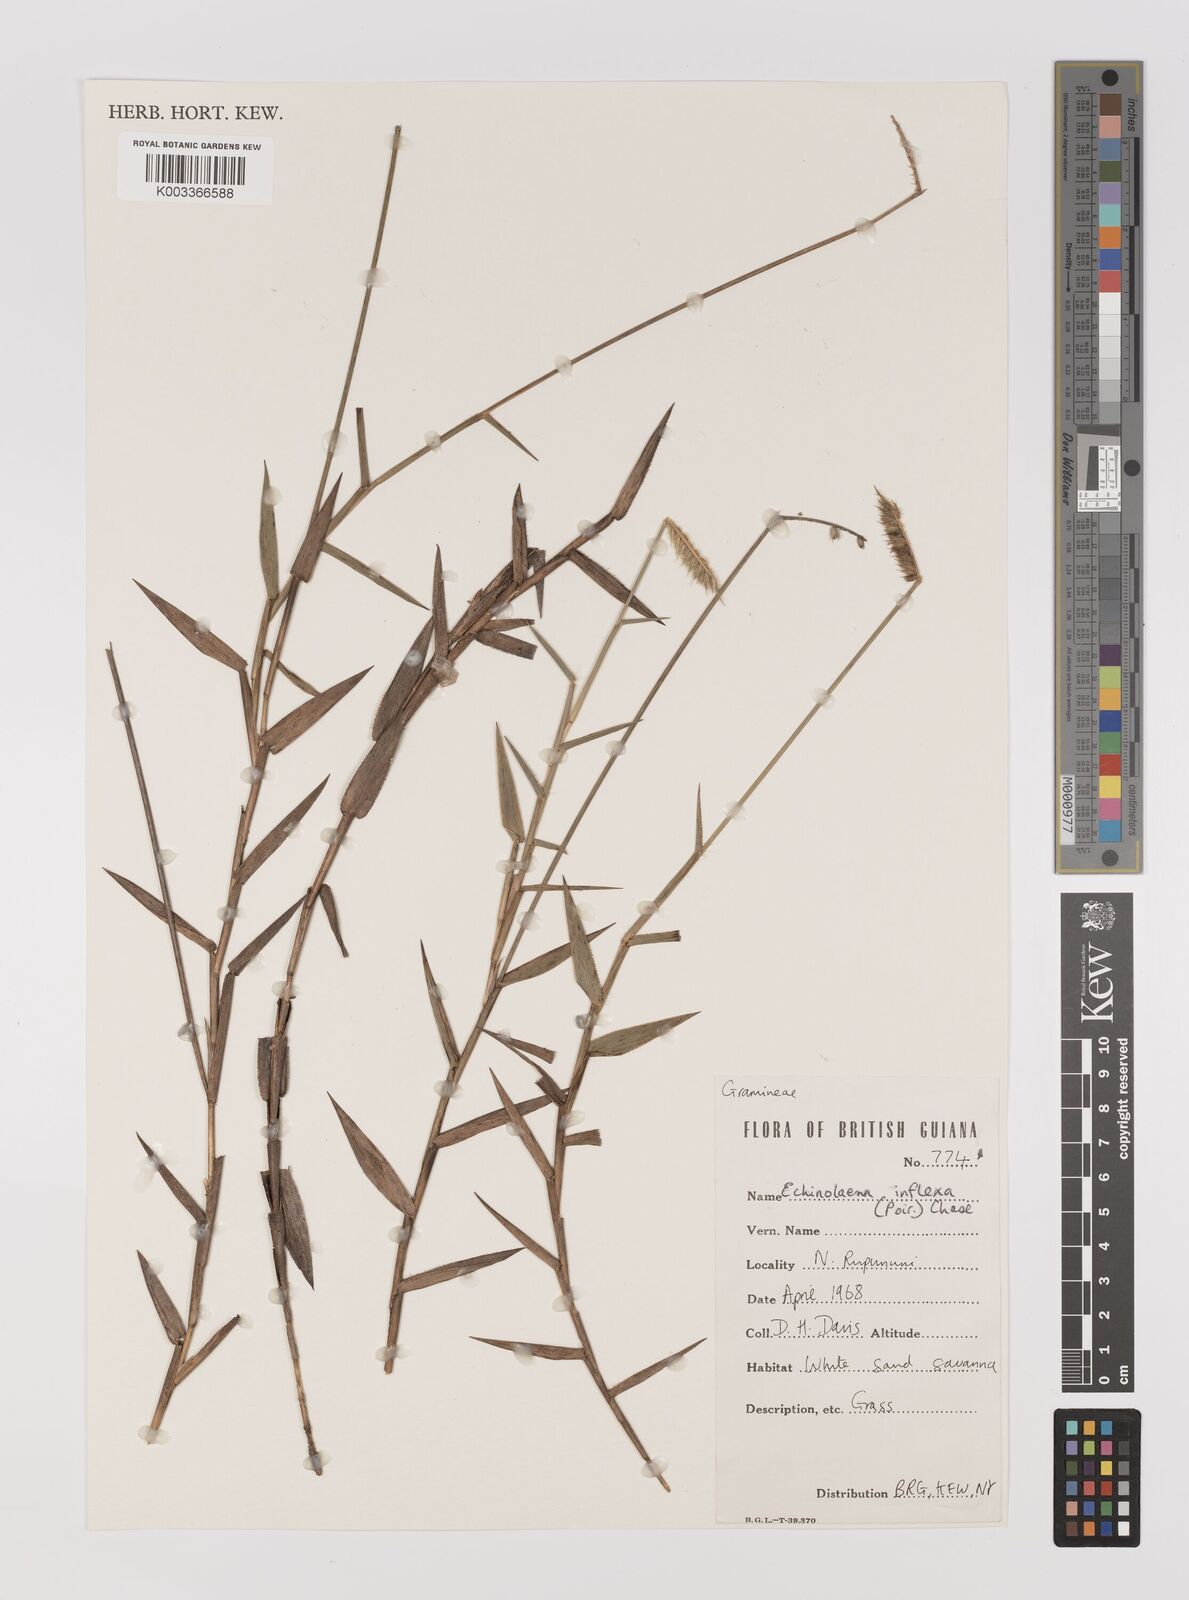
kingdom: Plantae
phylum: Tracheophyta
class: Liliopsida
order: Poales
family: Poaceae
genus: Echinolaena
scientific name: Echinolaena inflexa
